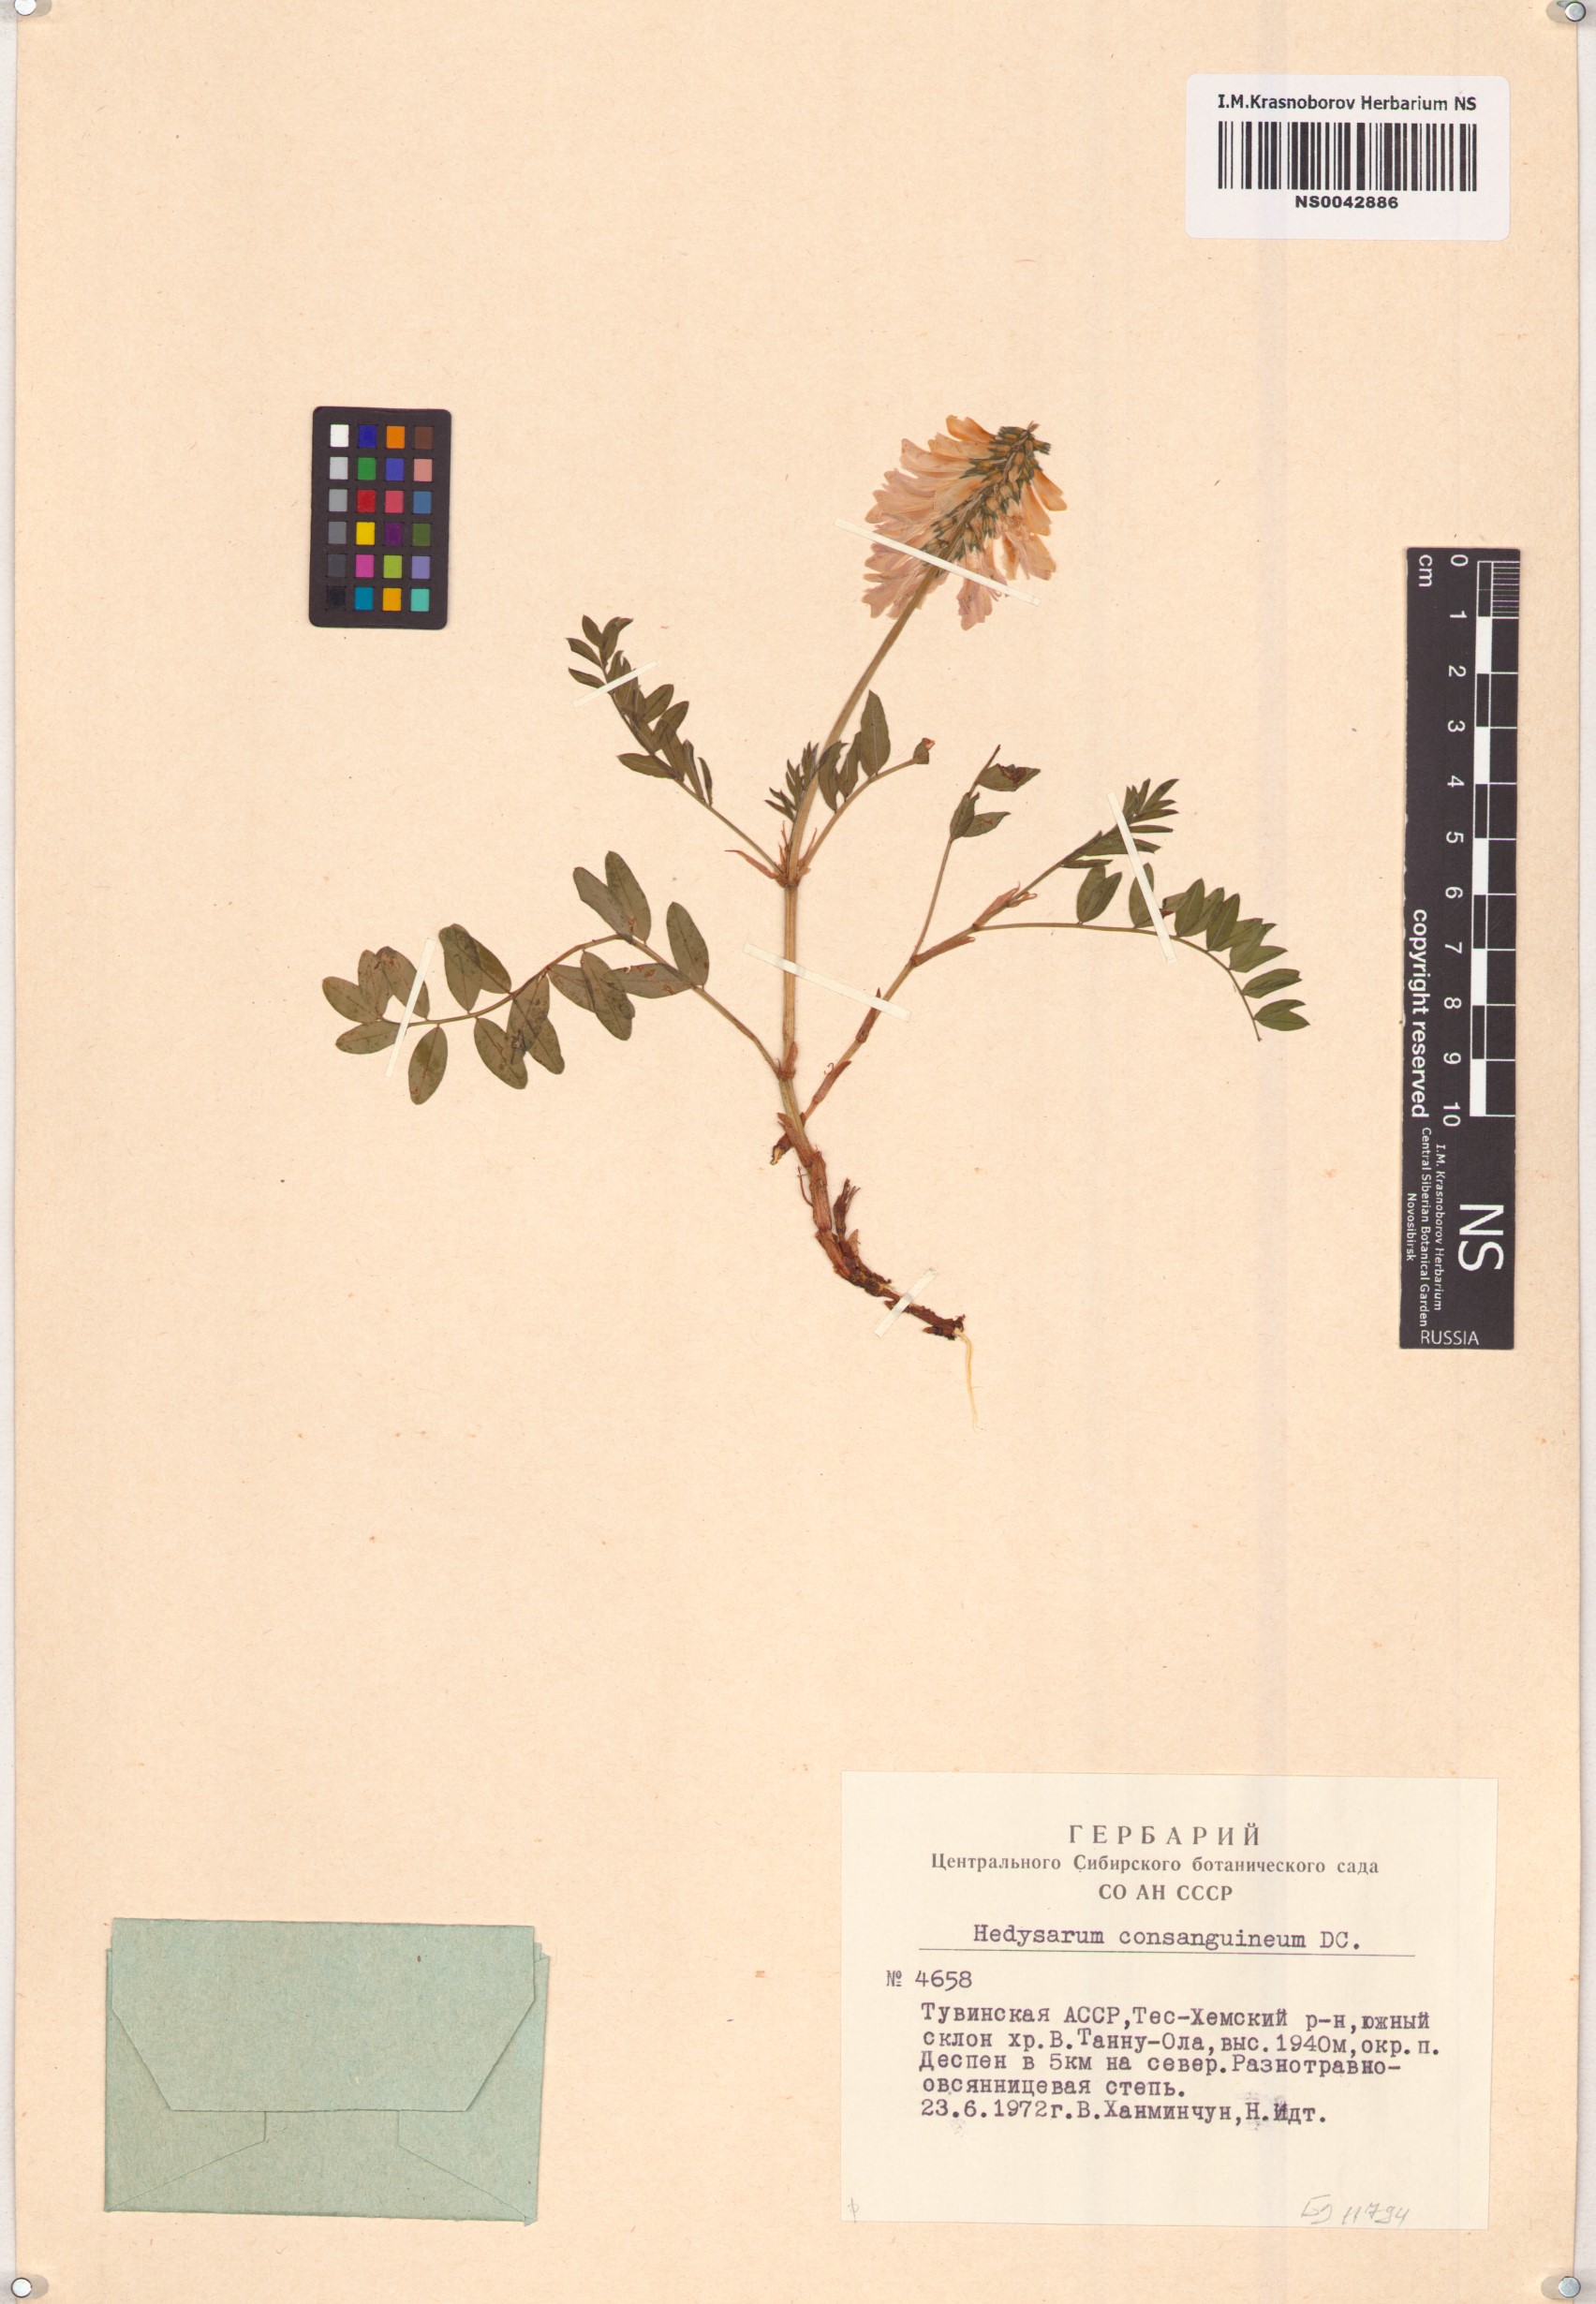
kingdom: Plantae
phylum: Tracheophyta
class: Magnoliopsida
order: Fabales
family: Fabaceae
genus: Hedysarum
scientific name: Hedysarum consanguineum
